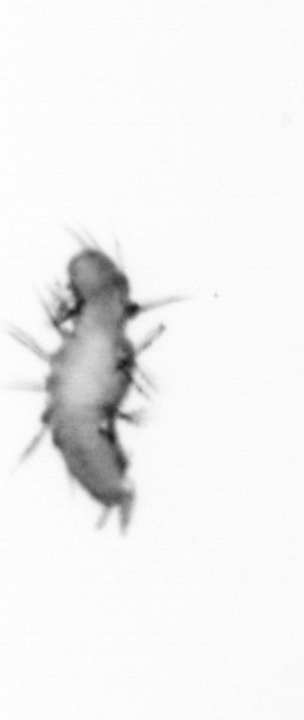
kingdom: Animalia
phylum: Annelida
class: Polychaeta
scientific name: Polychaeta
